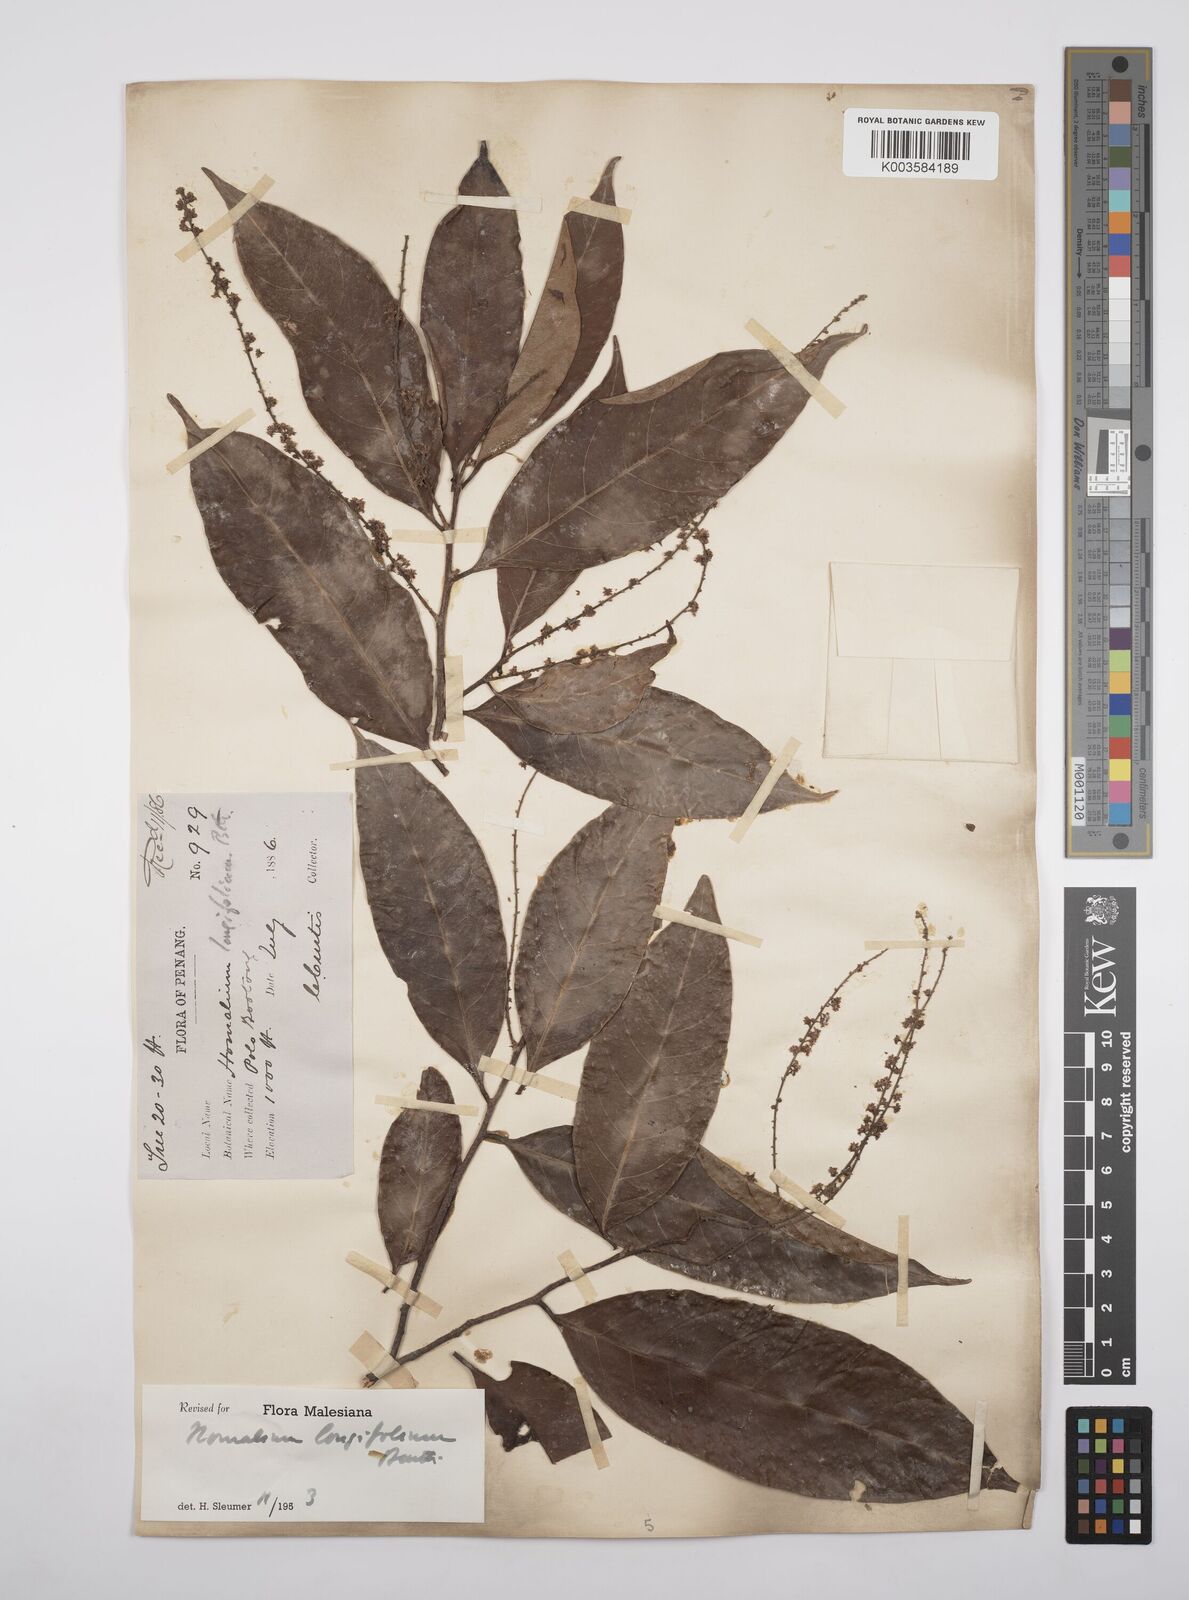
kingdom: Plantae
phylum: Tracheophyta
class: Magnoliopsida
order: Malpighiales
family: Salicaceae
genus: Homalium
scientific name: Homalium longifolium
